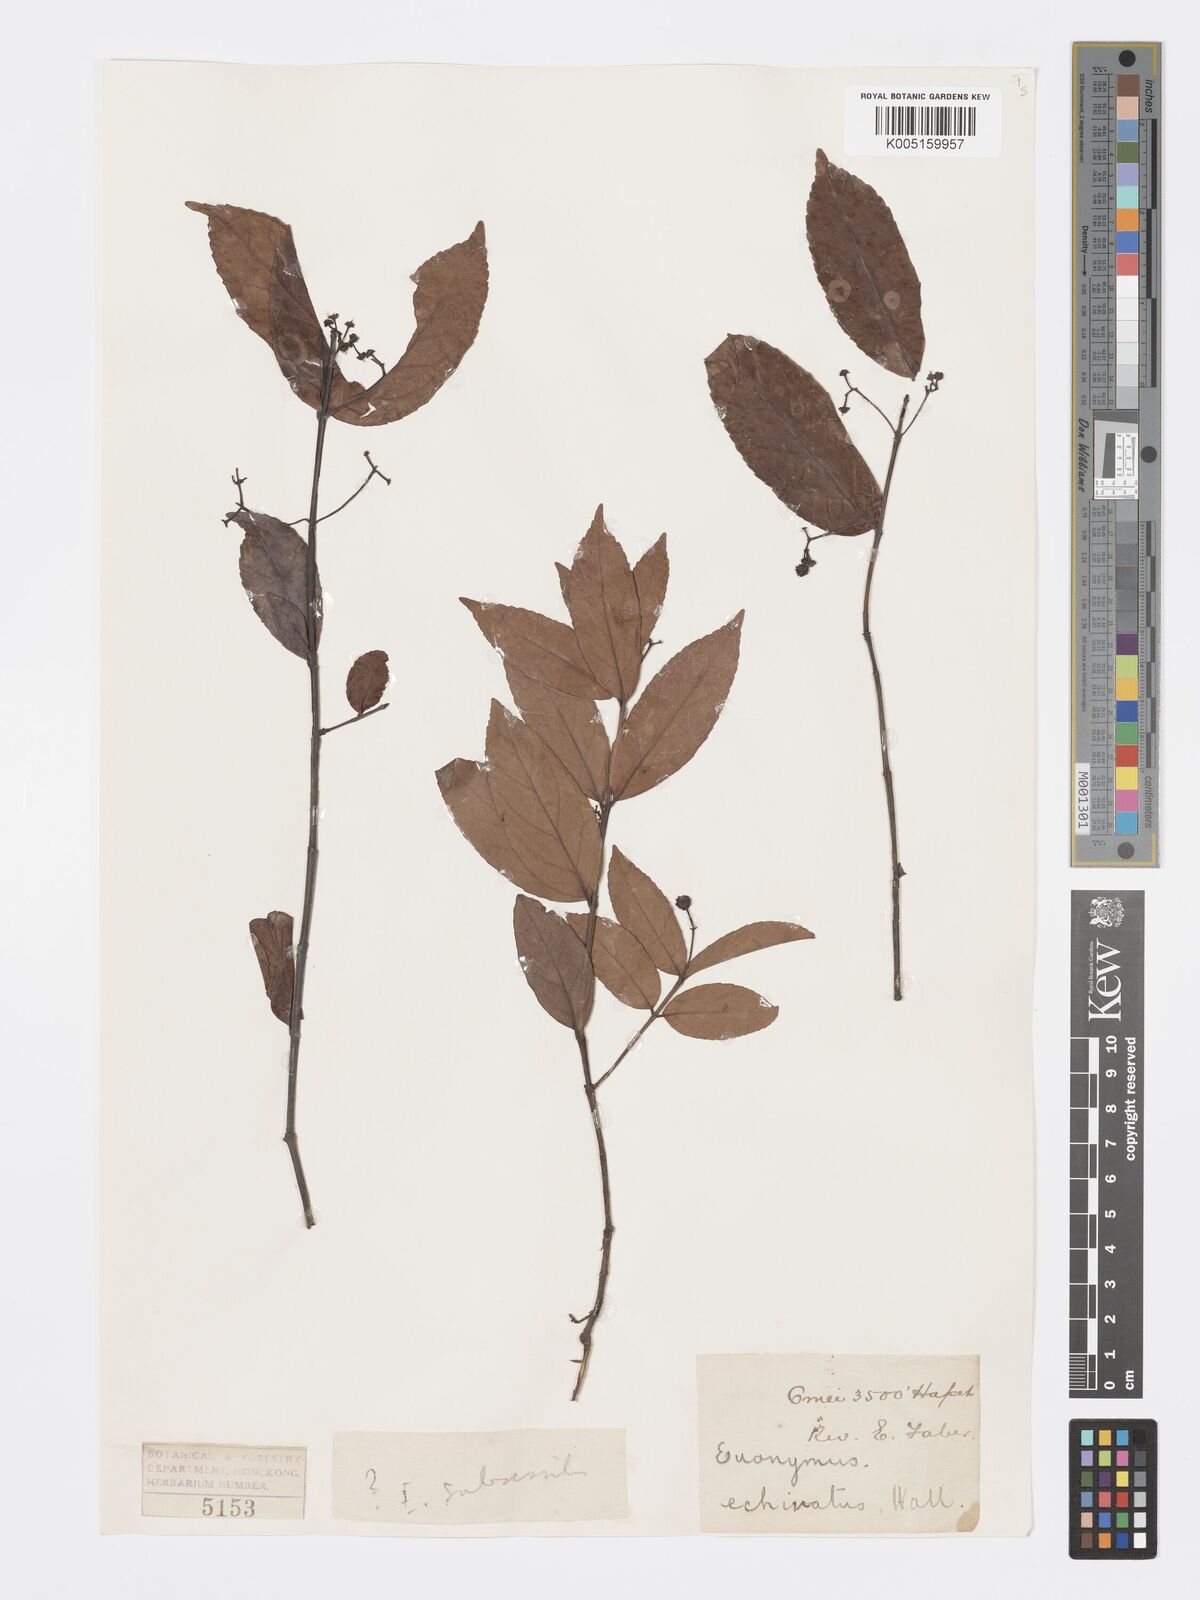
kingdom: Plantae
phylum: Tracheophyta
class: Magnoliopsida
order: Celastrales
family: Celastraceae
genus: Euonymus
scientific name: Euonymus echinatus
